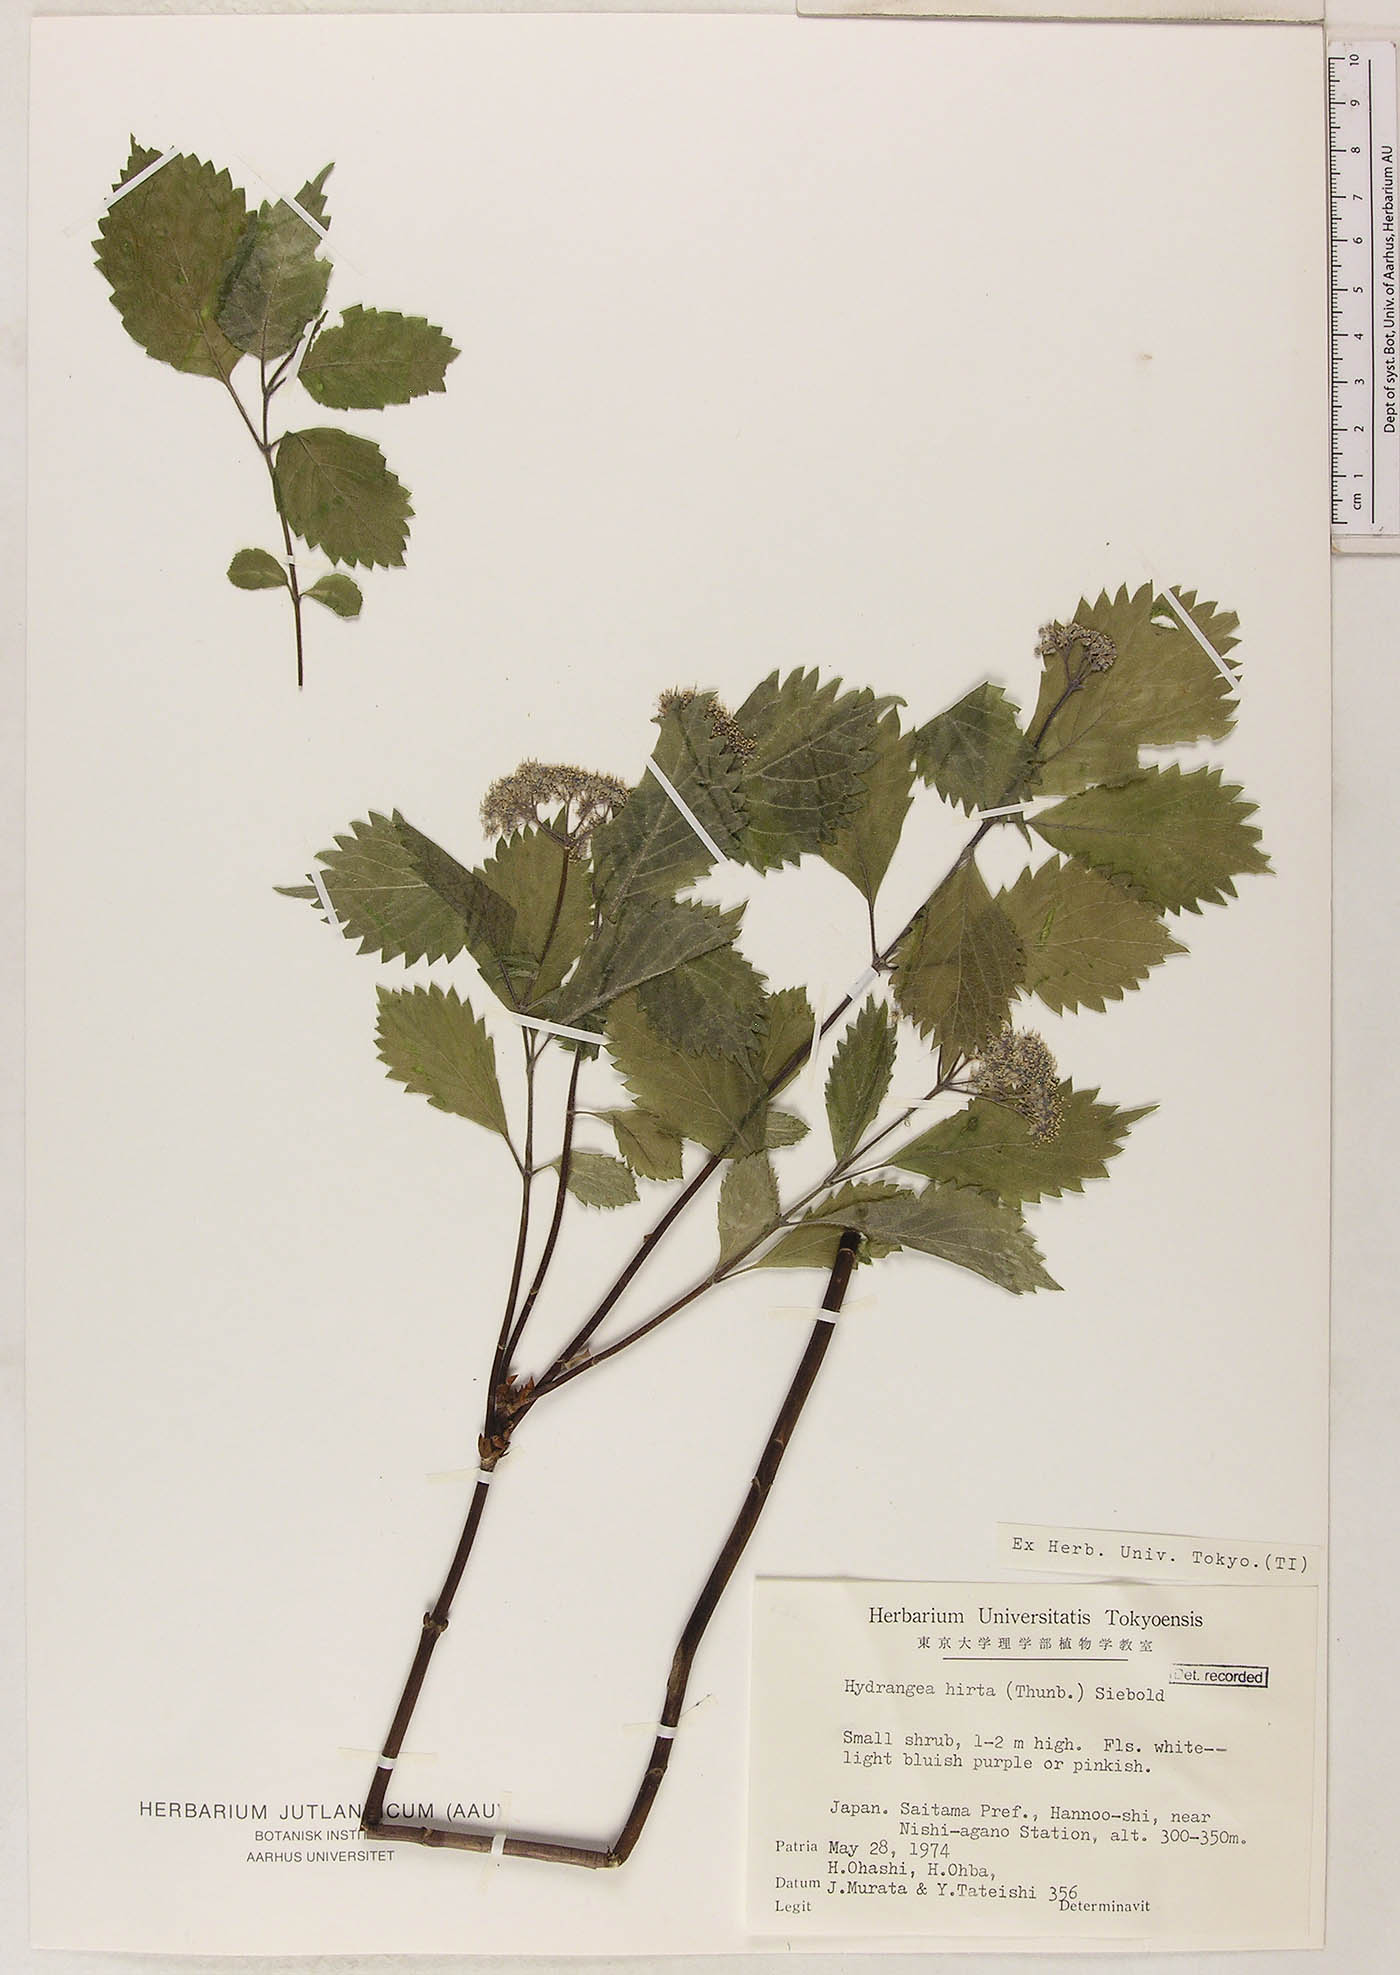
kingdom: Plantae
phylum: Tracheophyta
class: Magnoliopsida
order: Cornales
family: Hydrangeaceae
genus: Hydrangea
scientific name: Hydrangea hirta
